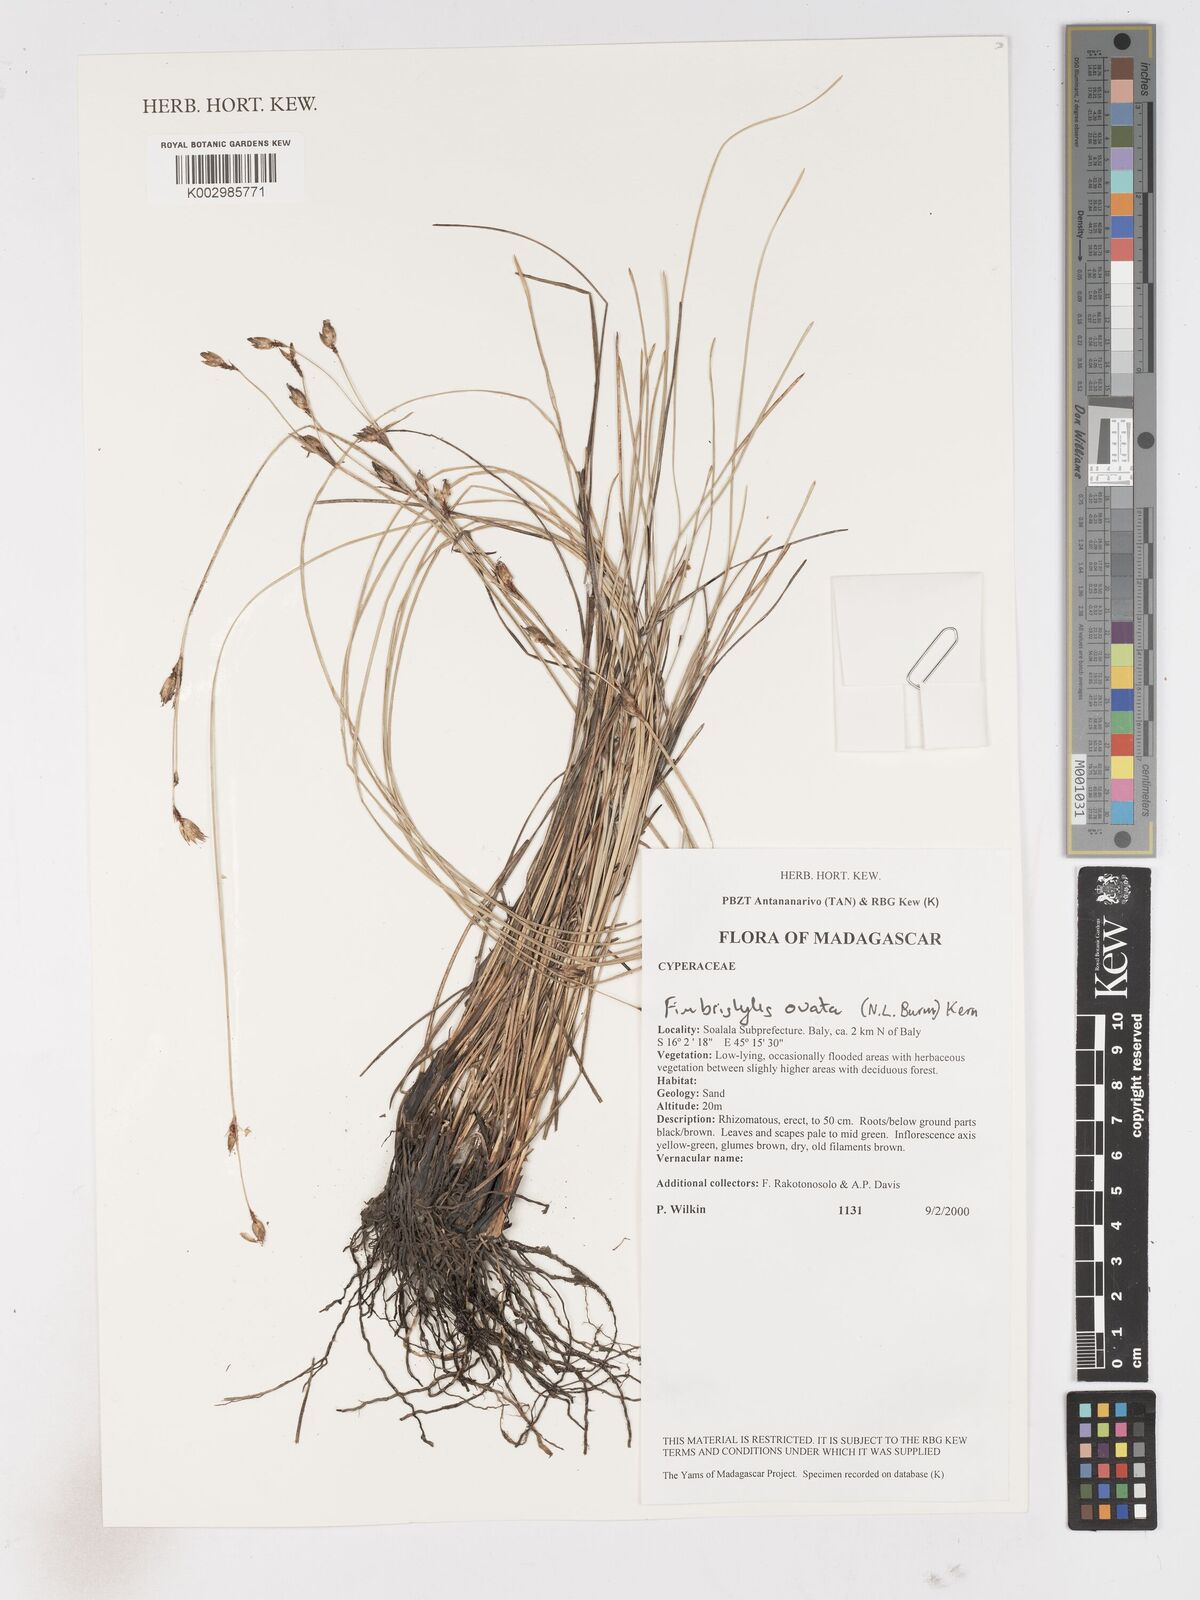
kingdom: Plantae
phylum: Tracheophyta
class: Liliopsida
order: Poales
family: Cyperaceae
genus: Abildgaardia
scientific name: Abildgaardia ovata
